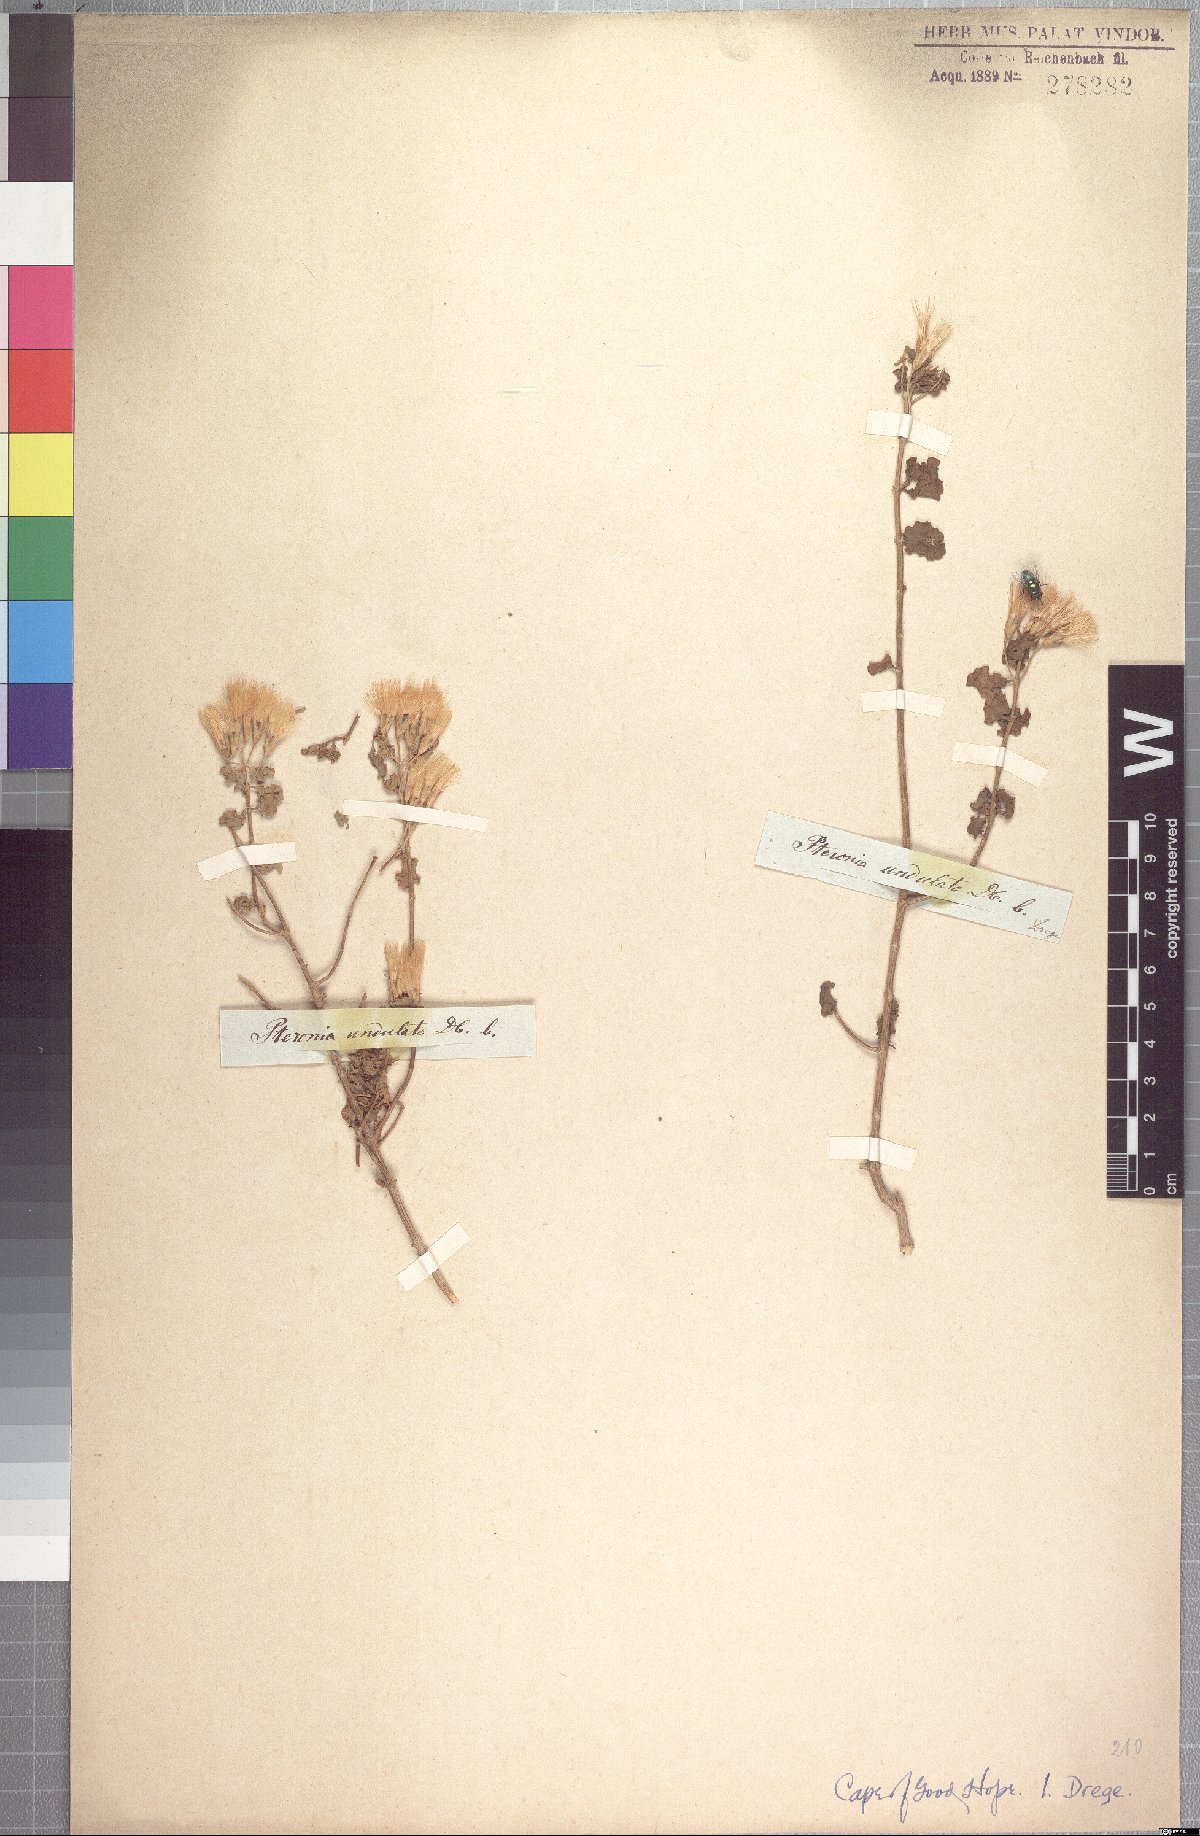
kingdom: Plantae
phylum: Tracheophyta
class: Magnoliopsida
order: Asterales
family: Asteraceae
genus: Pteronia
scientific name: Pteronia undulata
